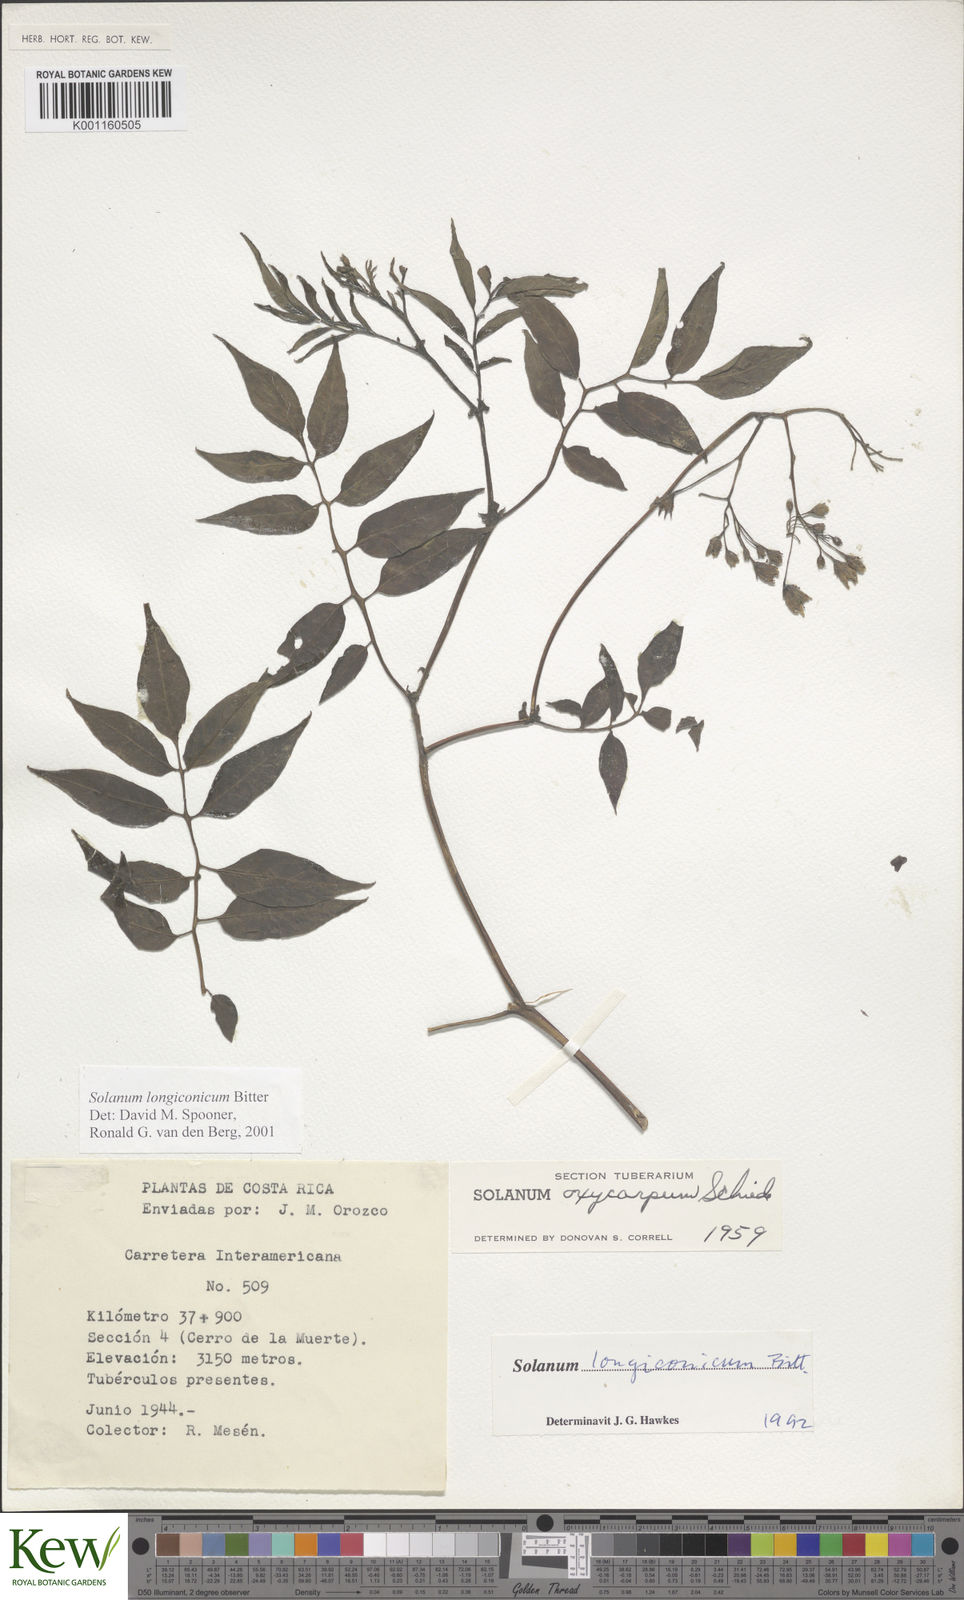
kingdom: Plantae
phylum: Tracheophyta
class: Magnoliopsida
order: Solanales
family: Solanaceae
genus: Solanum
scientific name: Solanum longiconicum
